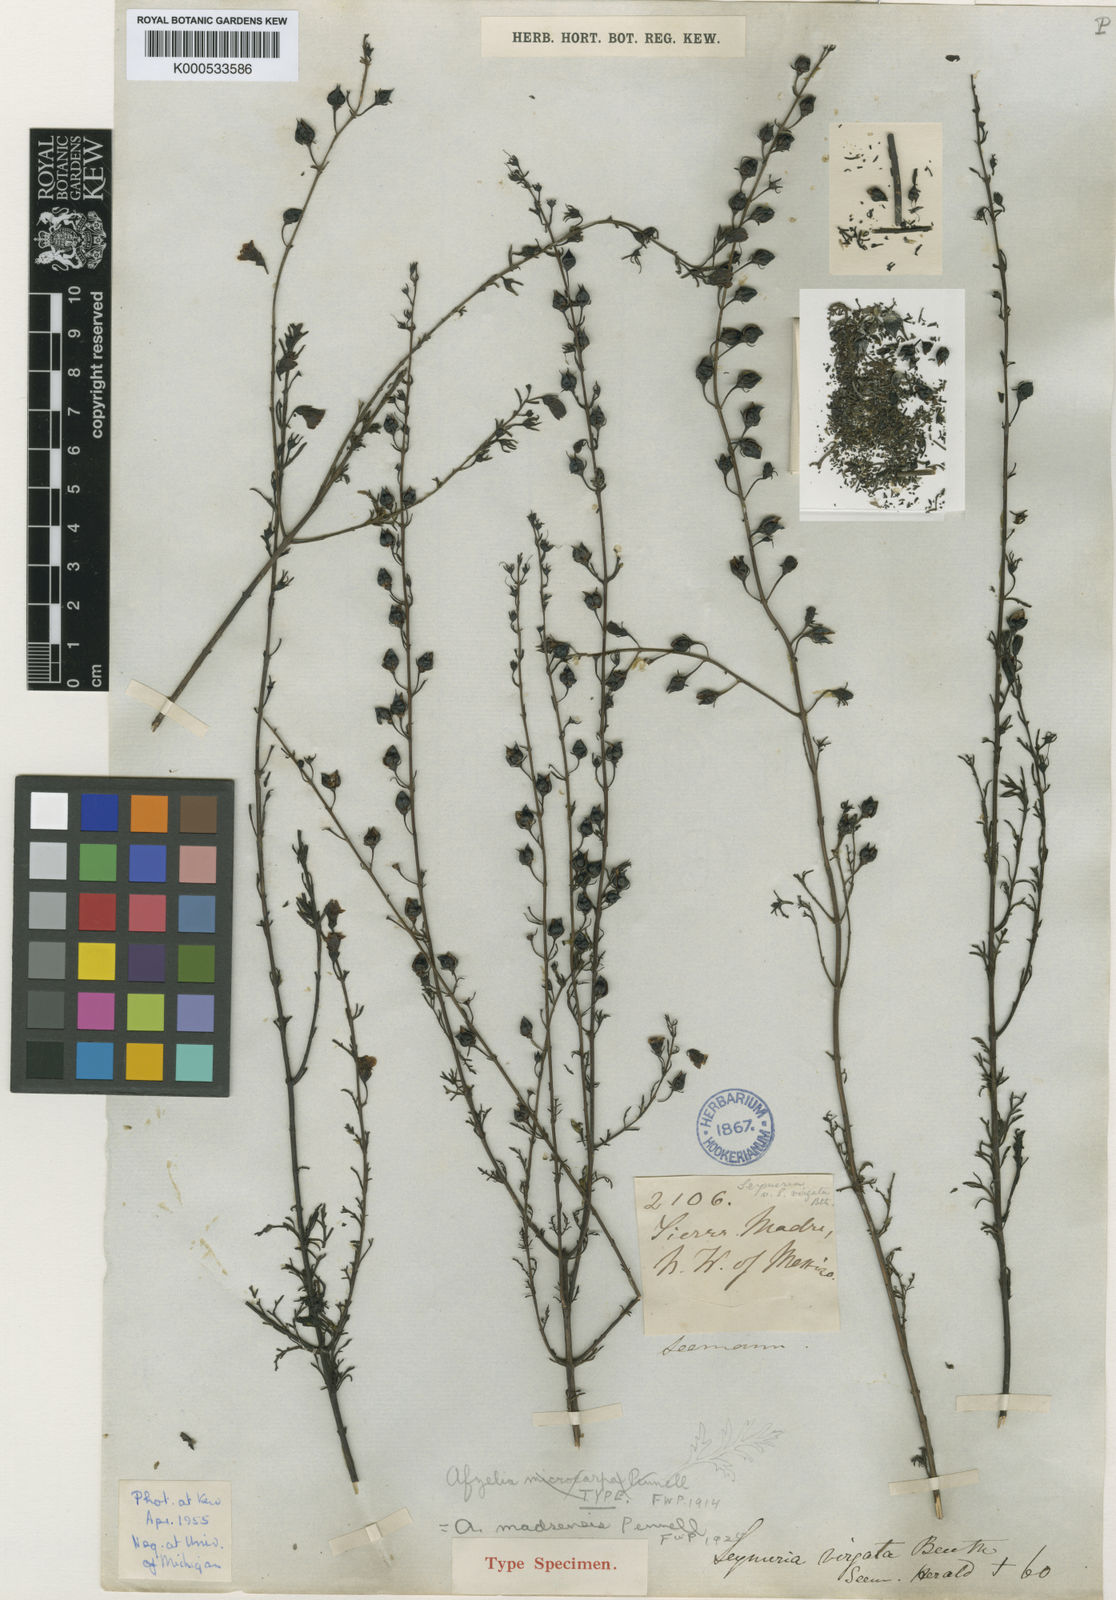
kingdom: Plantae
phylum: Tracheophyta
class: Magnoliopsida
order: Lamiales
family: Orobanchaceae
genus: Seymeria
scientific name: Seymeria integrifolia
